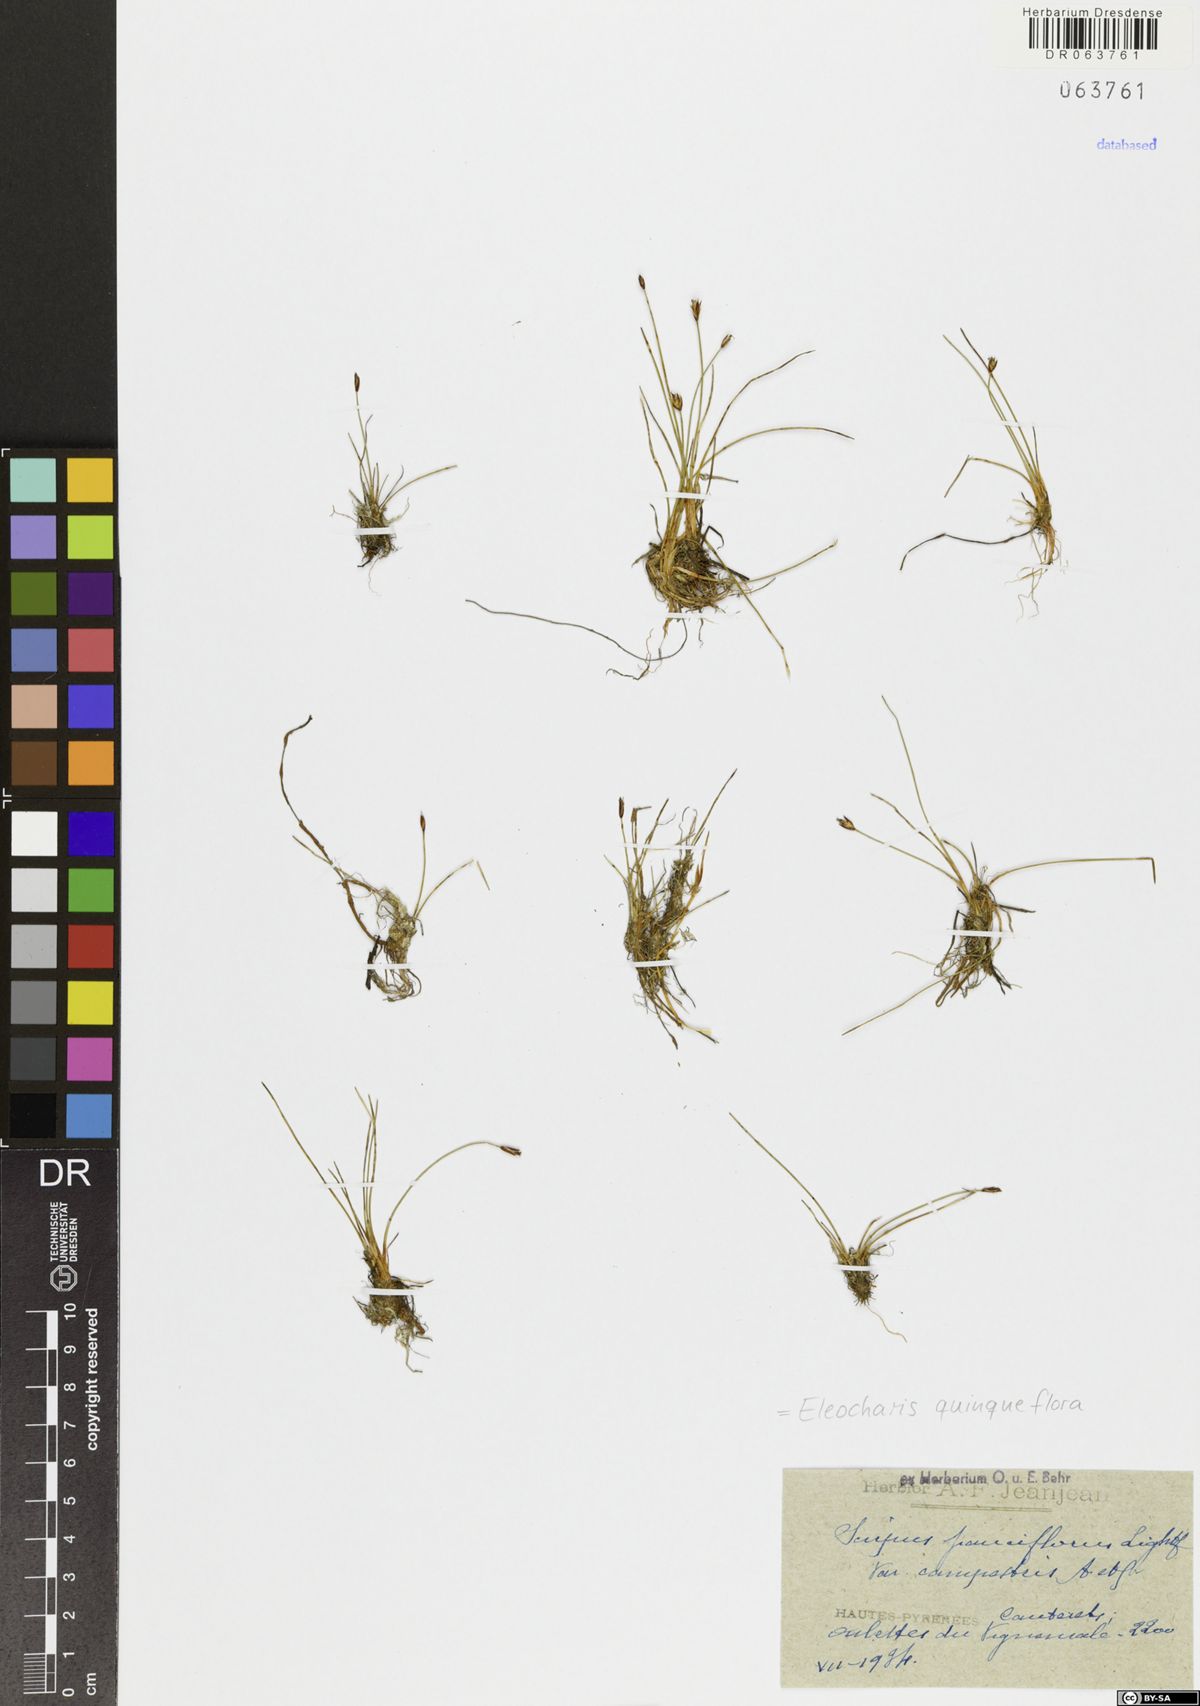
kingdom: Plantae
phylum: Tracheophyta
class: Liliopsida
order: Poales
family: Cyperaceae
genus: Eleocharis
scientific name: Eleocharis quinqueflora
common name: Few-flowered spike-rush
